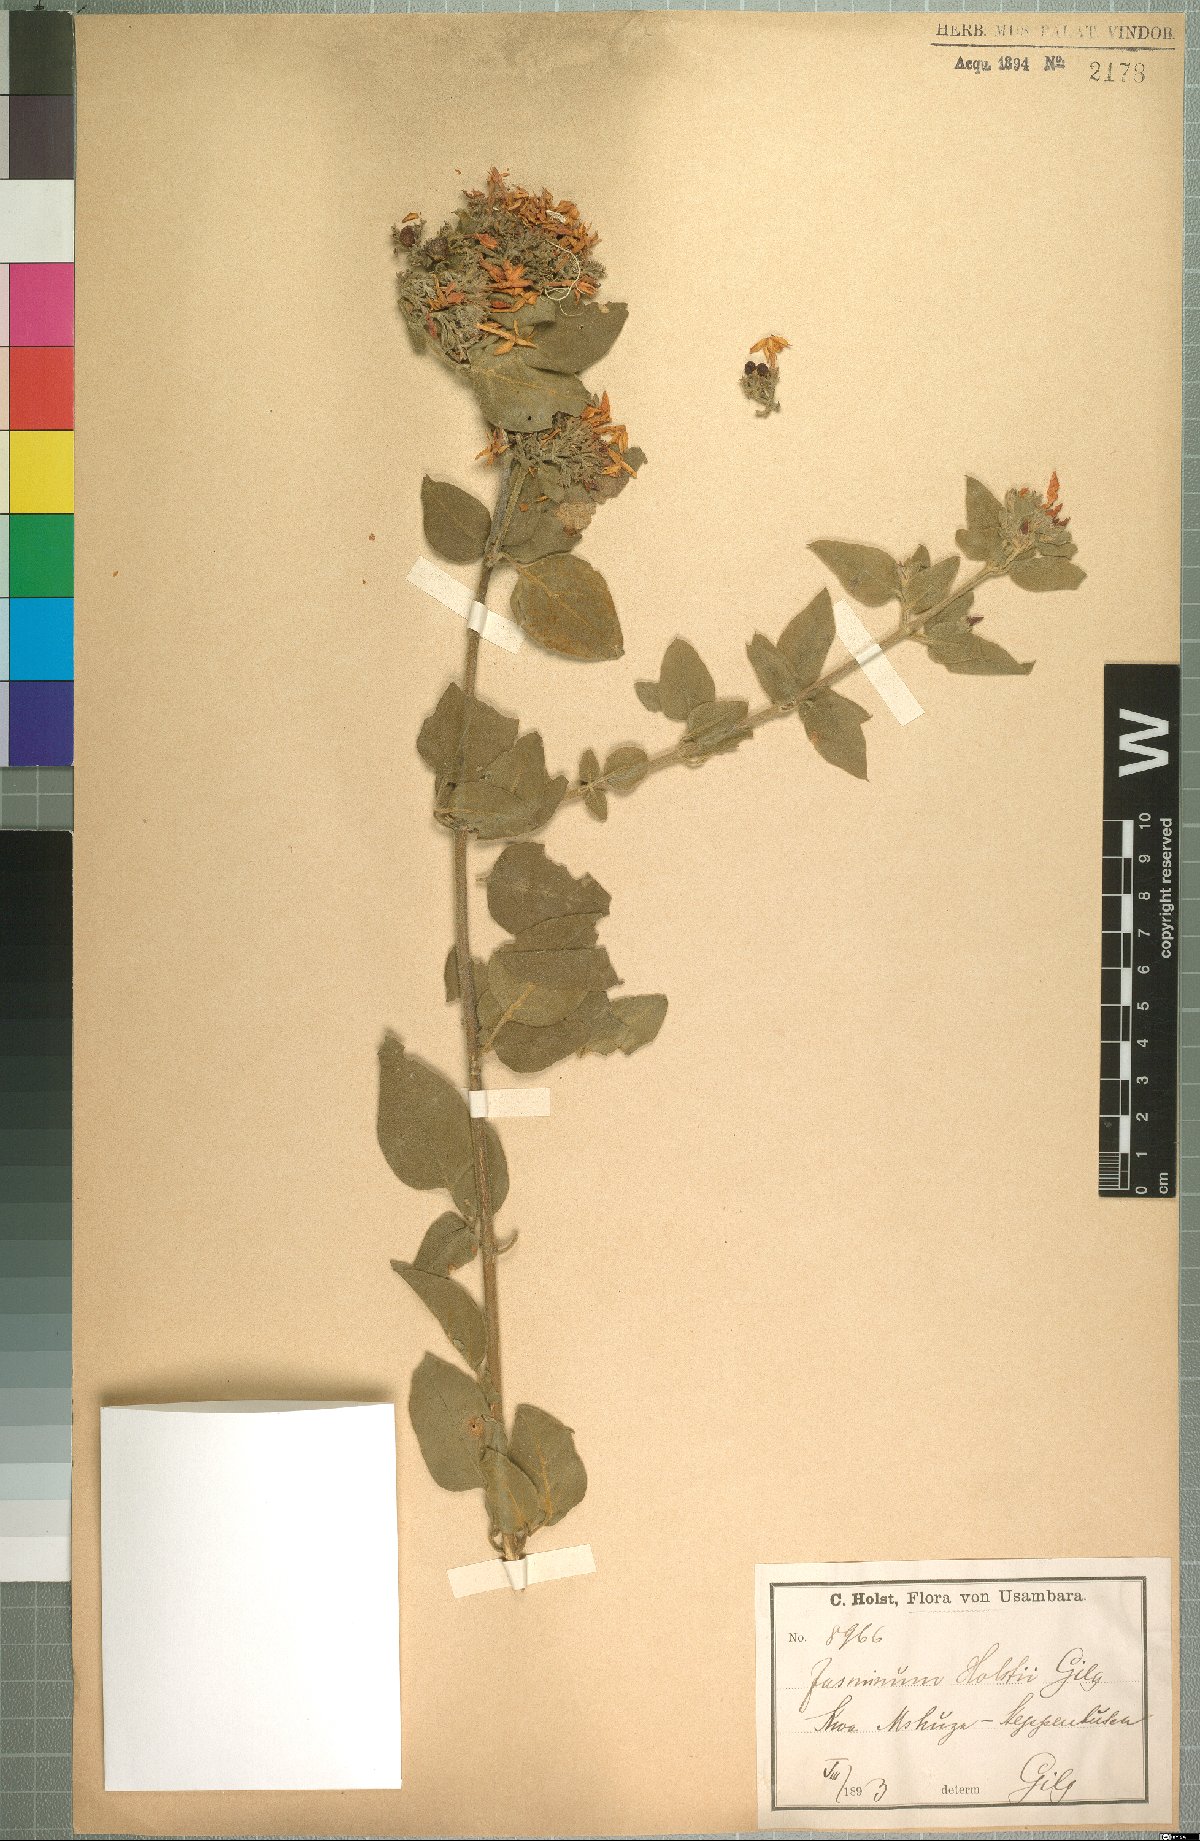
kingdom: Plantae
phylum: Tracheophyta
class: Magnoliopsida
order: Lamiales
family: Oleaceae
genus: Jasminum
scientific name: Jasminum fluminense
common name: Brazilian jasmine
